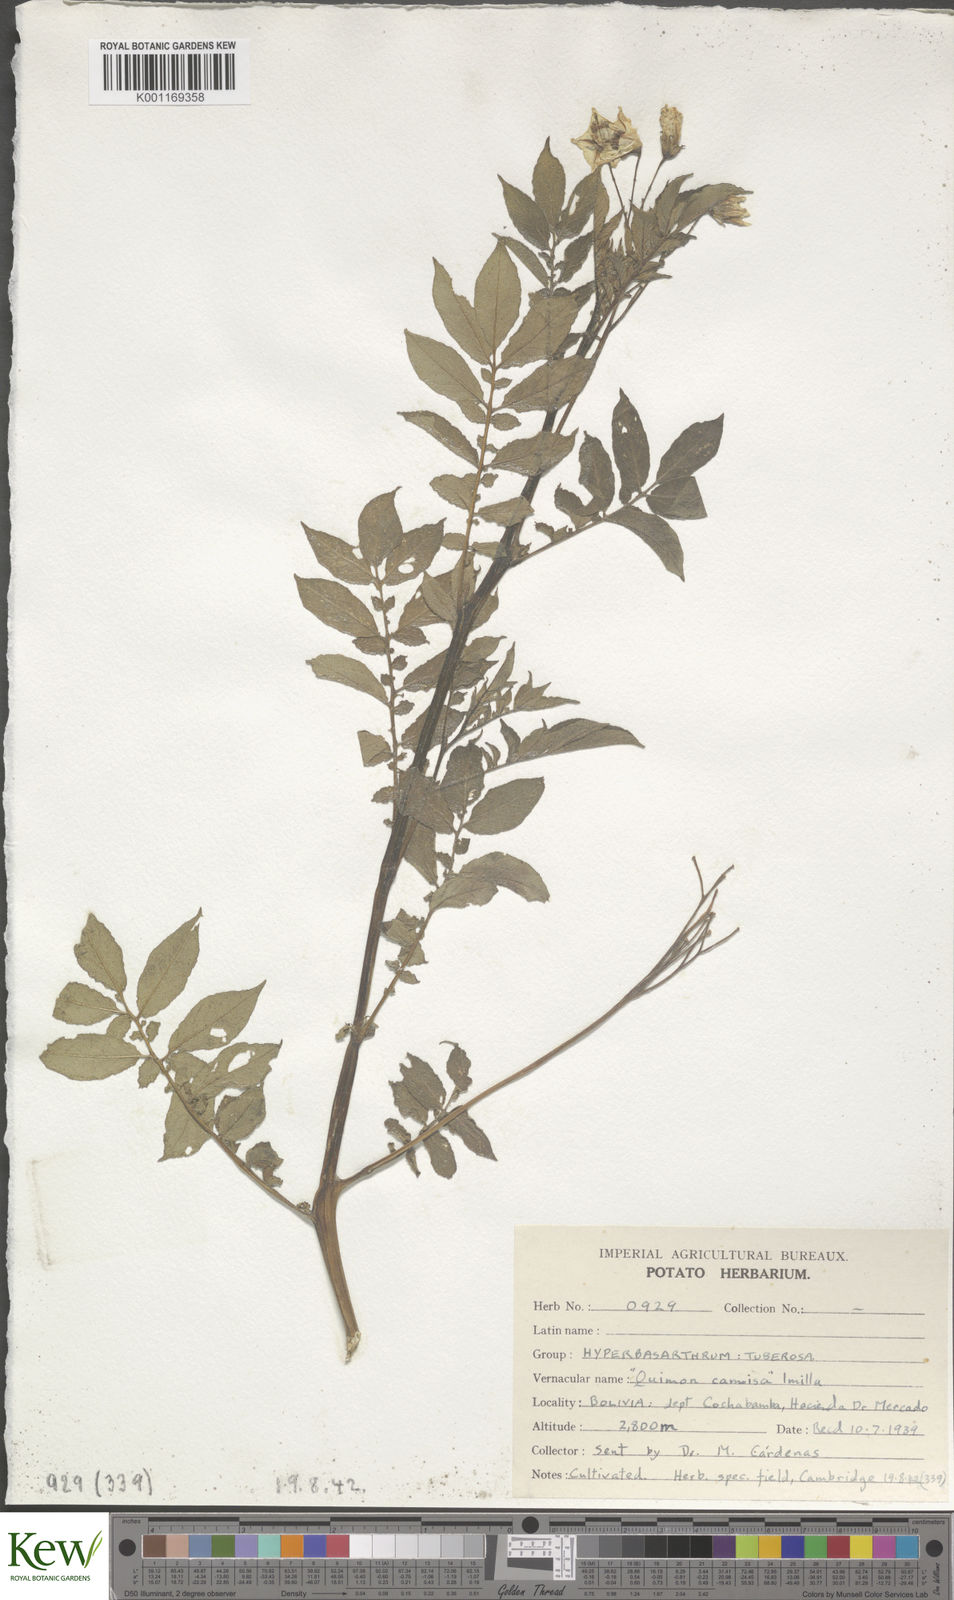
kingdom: Plantae
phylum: Tracheophyta
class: Magnoliopsida
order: Solanales
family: Solanaceae
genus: Solanum
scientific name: Solanum chaucha
